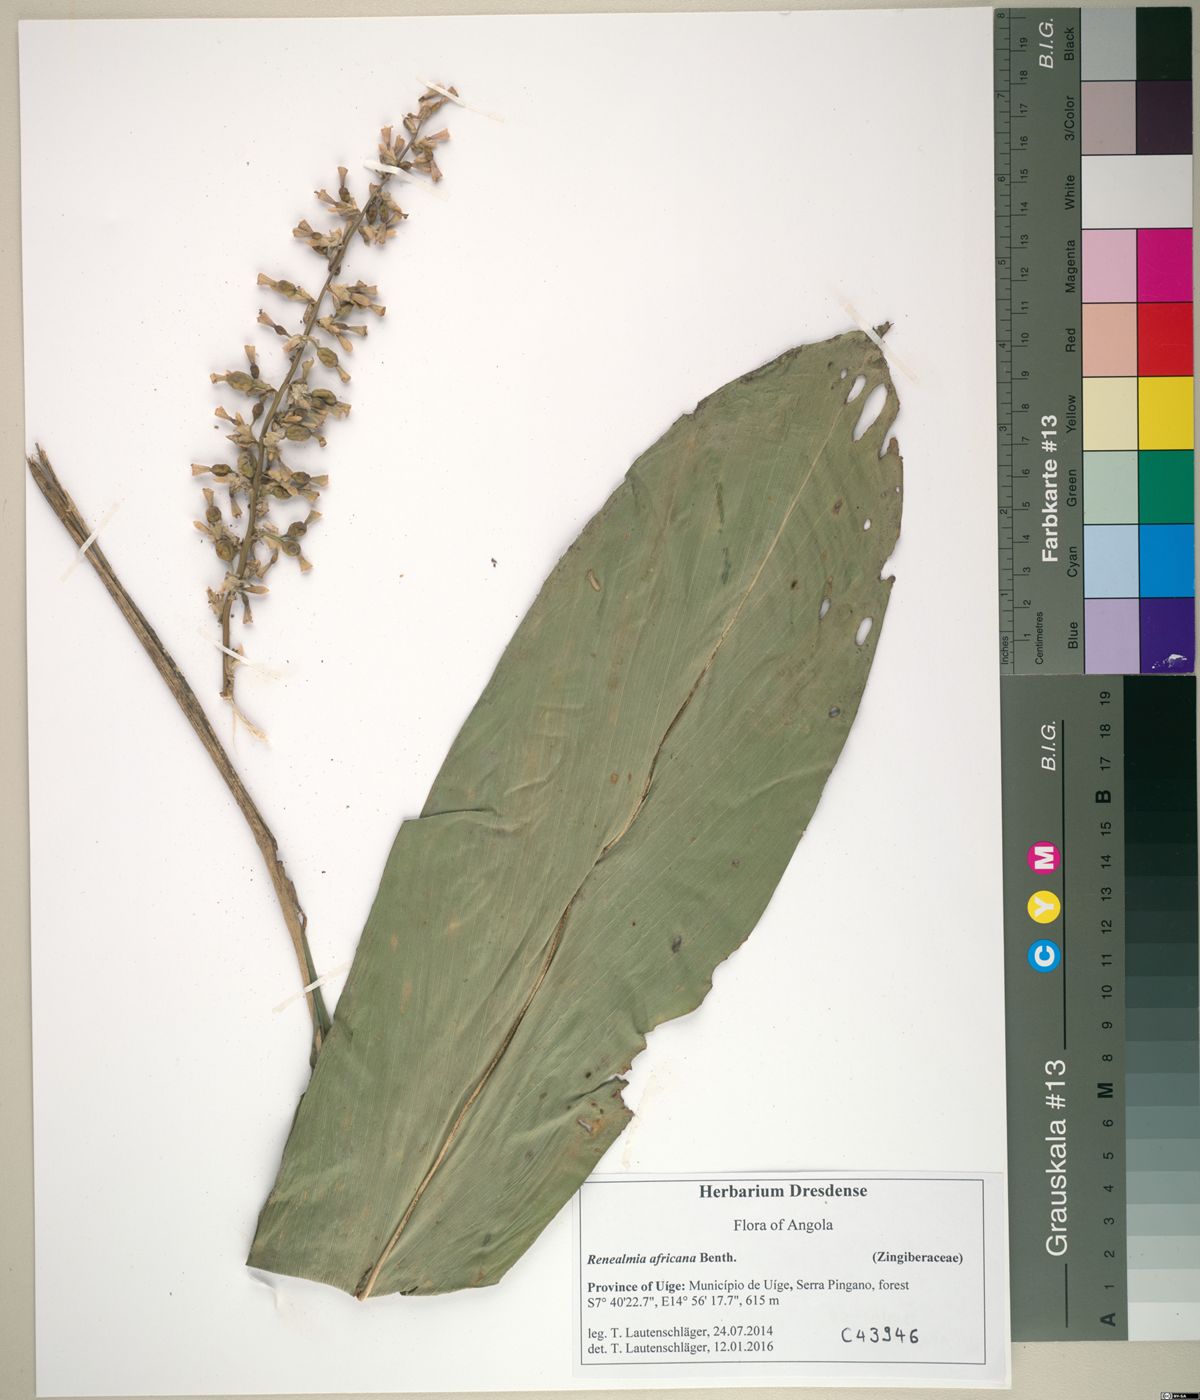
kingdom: Plantae
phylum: Tracheophyta
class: Liliopsida
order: Zingiberales
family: Zingiberaceae
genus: Renealmia
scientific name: Renealmia africana
